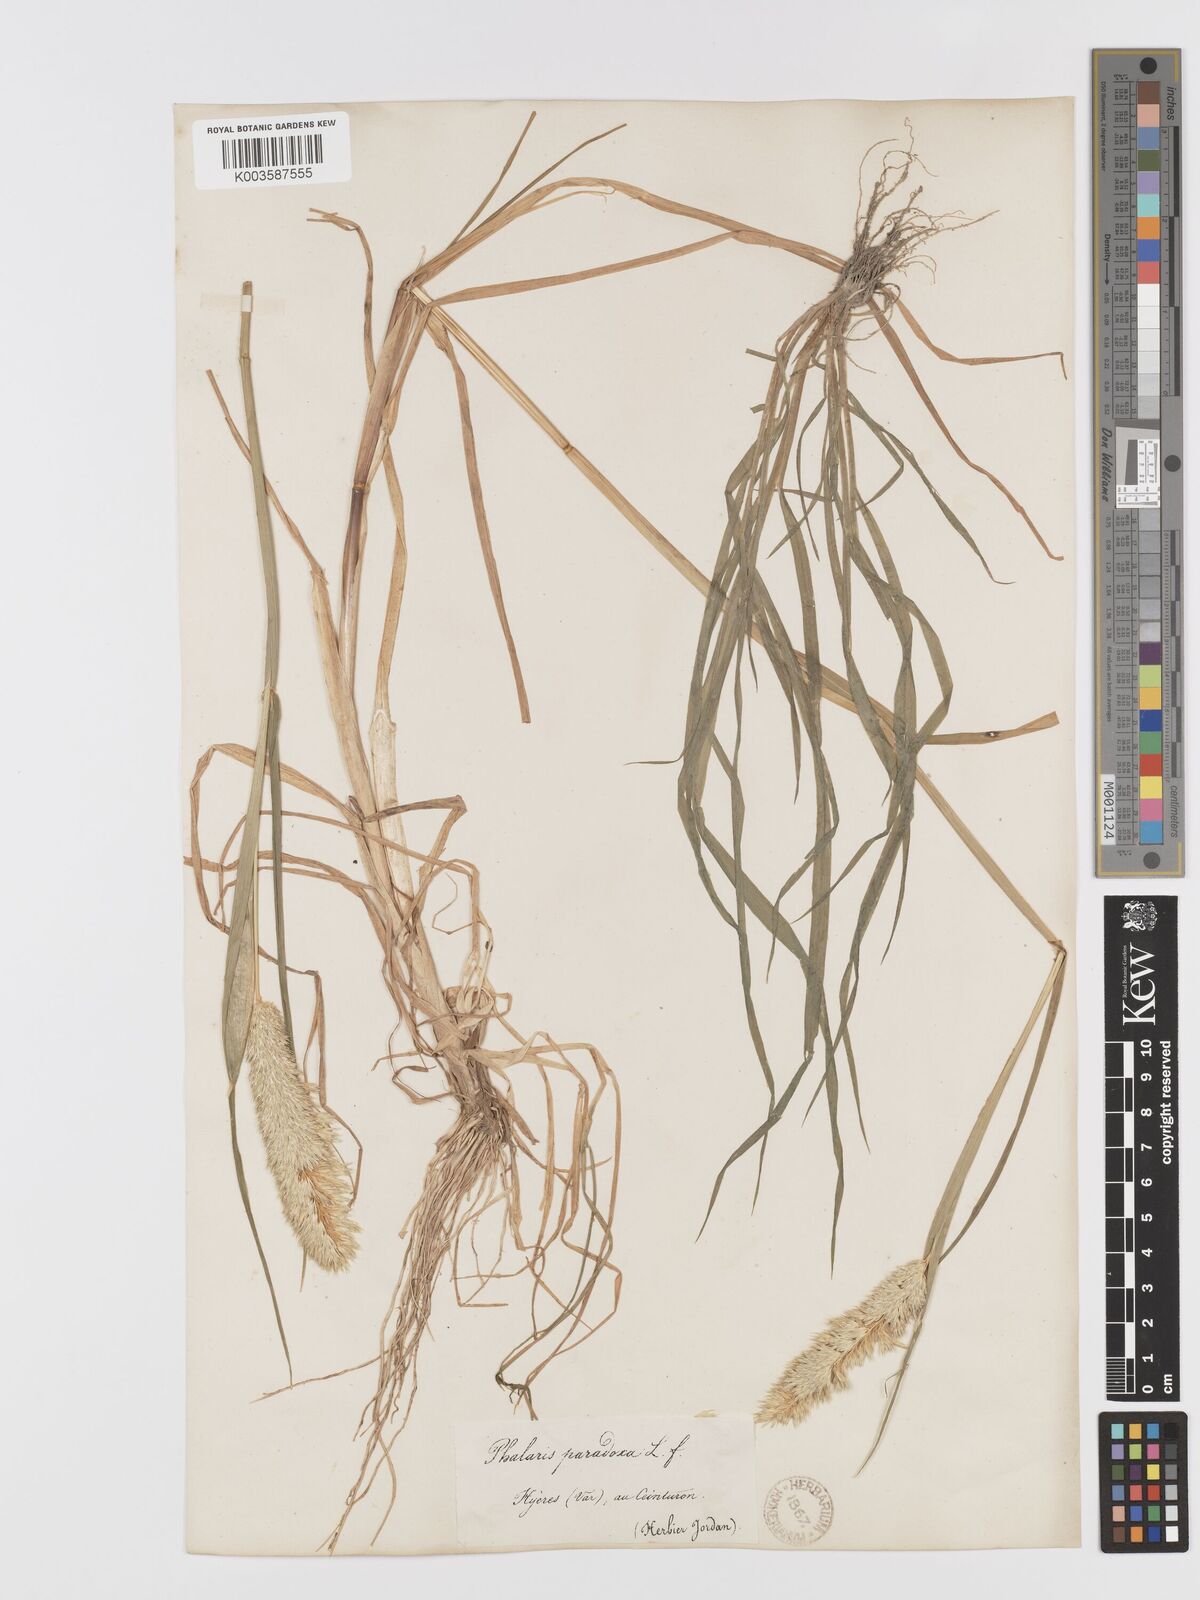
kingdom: Plantae
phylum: Tracheophyta
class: Liliopsida
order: Poales
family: Poaceae
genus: Phalaris
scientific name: Phalaris paradoxa
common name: Awned canary-grass
